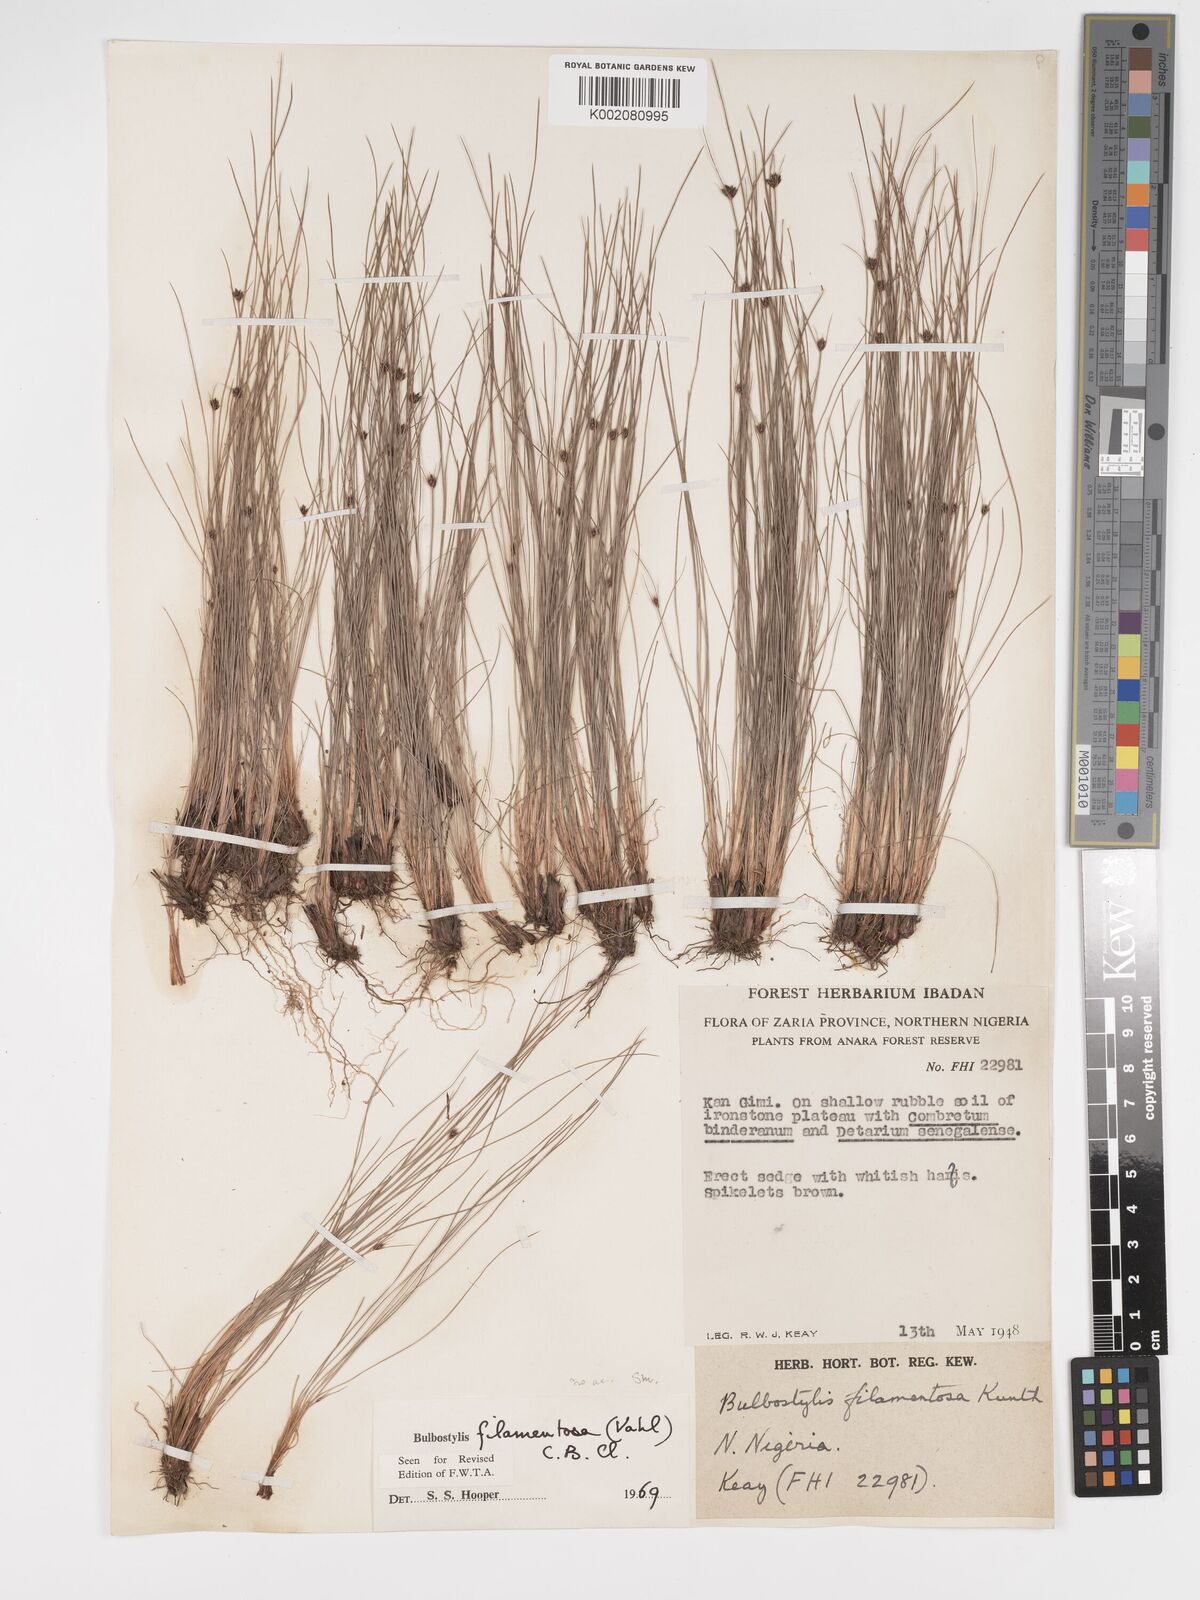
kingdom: Plantae
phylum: Tracheophyta
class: Liliopsida
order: Poales
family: Cyperaceae
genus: Bulbostylis
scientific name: Bulbostylis filamentosa
